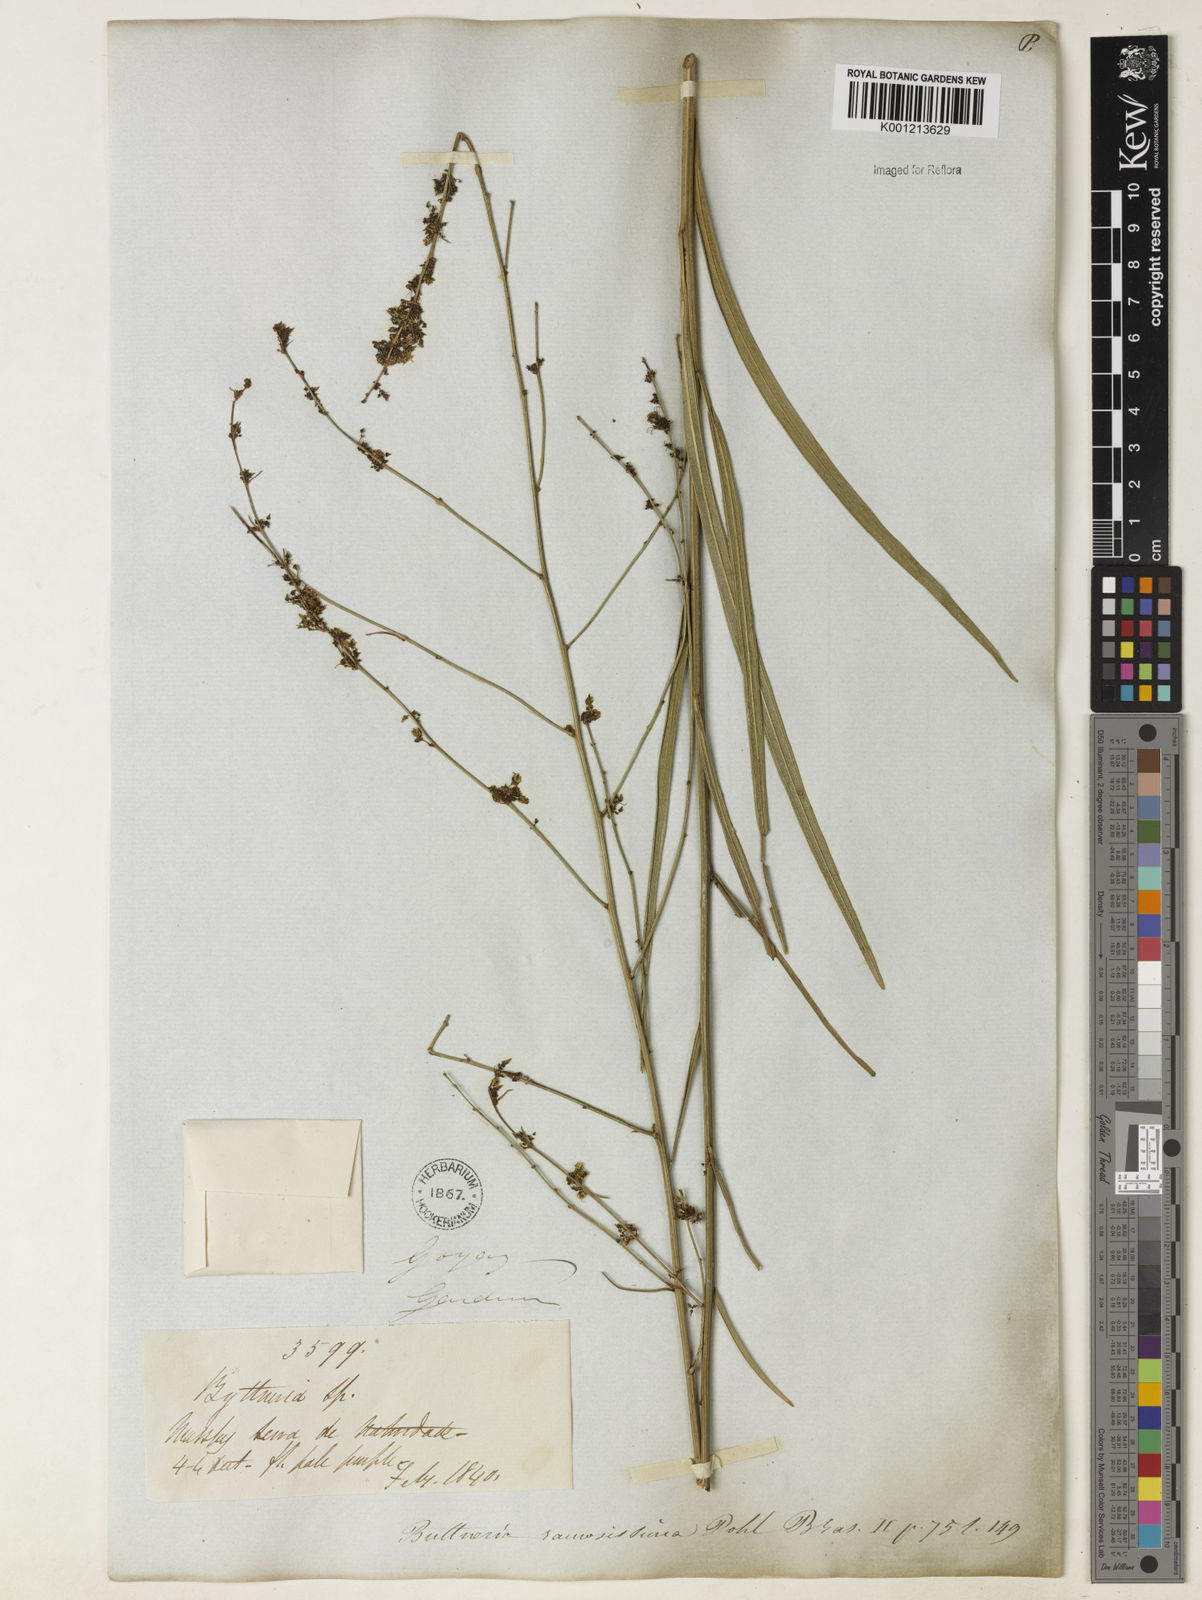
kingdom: Plantae
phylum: Tracheophyta
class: Magnoliopsida
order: Malvales
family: Malvaceae
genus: Byttneria
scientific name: Byttneria ramosissima
